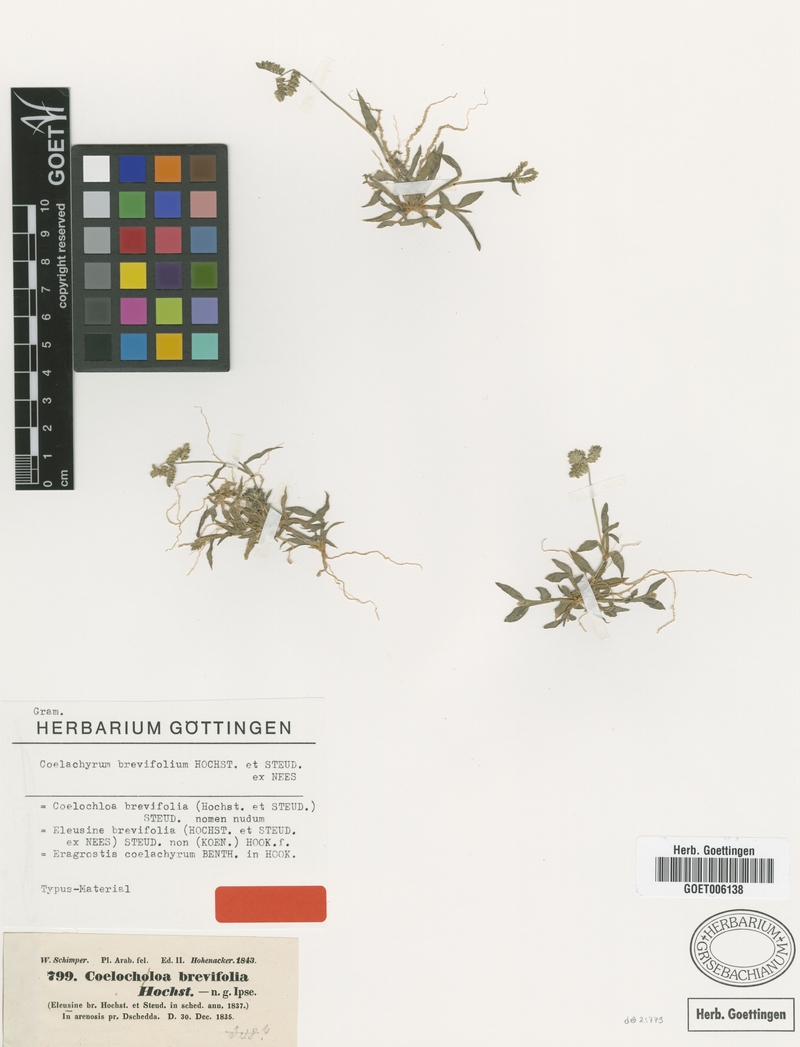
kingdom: Plantae
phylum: Tracheophyta
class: Liliopsida
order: Poales
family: Poaceae
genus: Coelachyrum
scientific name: Coelachyrum brevifolium
